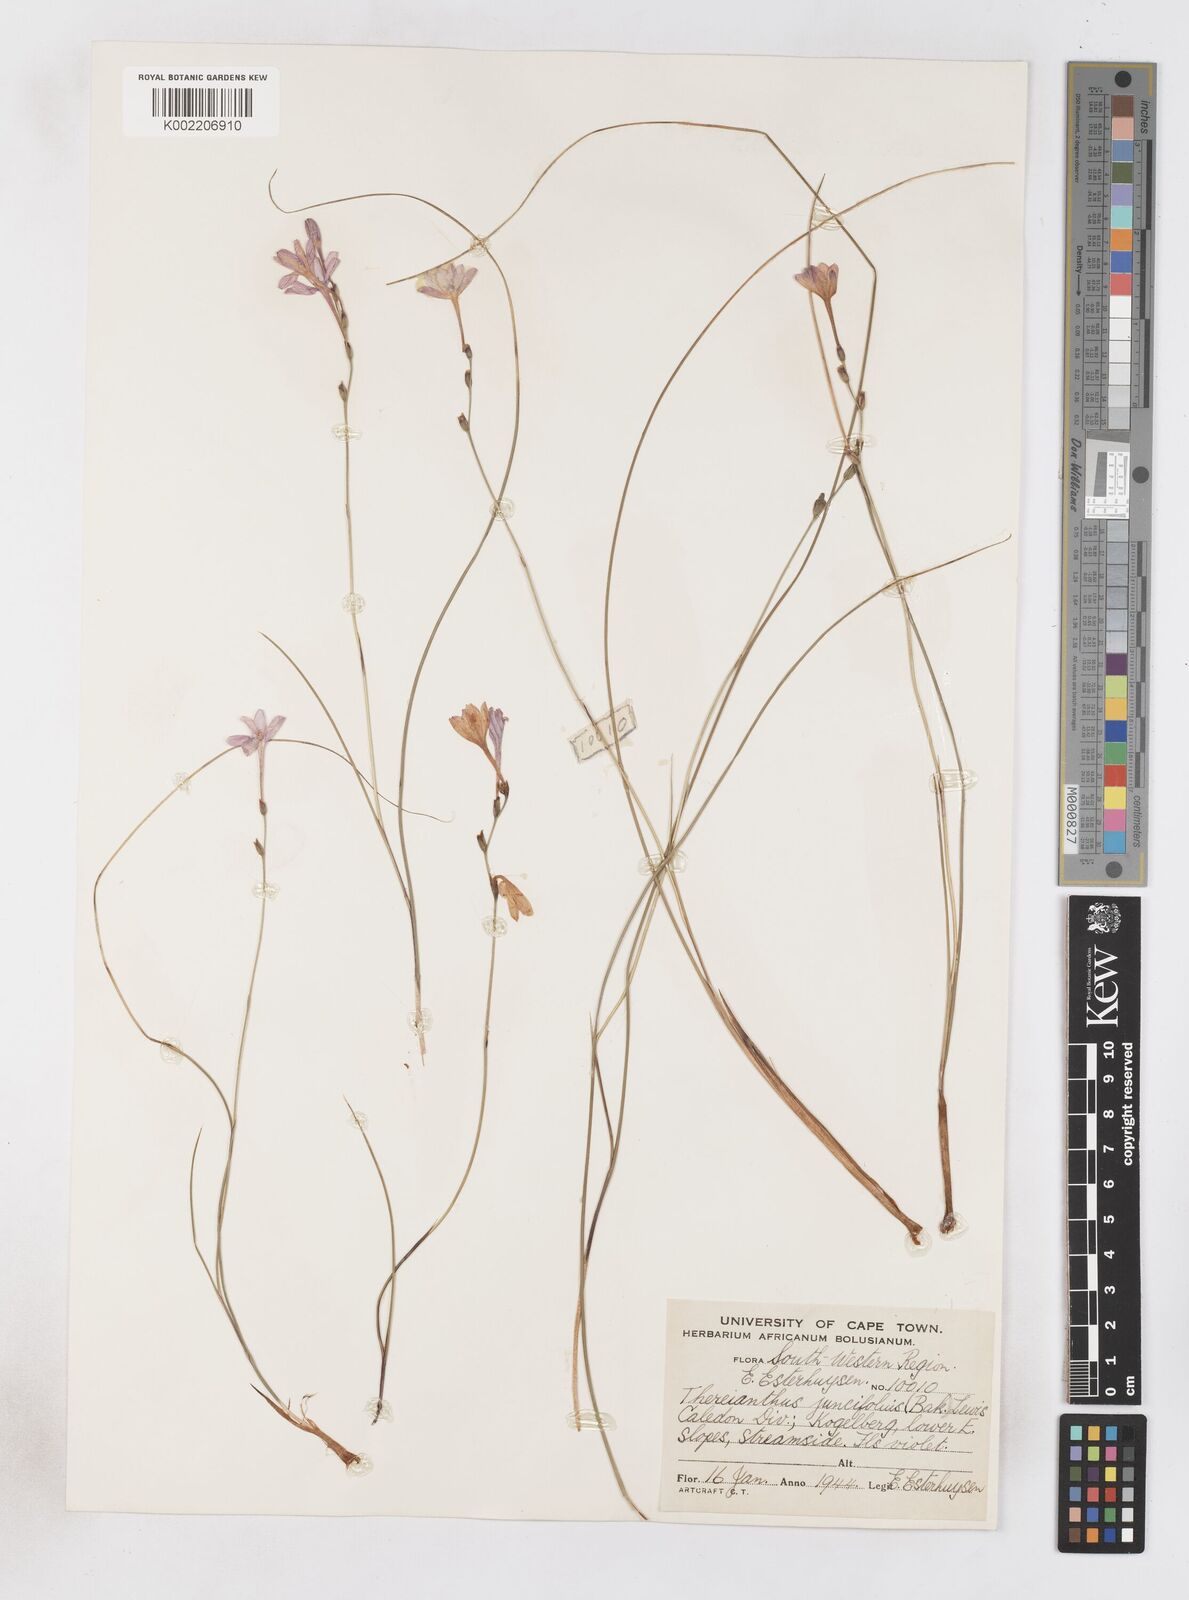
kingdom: Plantae
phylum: Tracheophyta
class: Liliopsida
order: Asparagales
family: Iridaceae
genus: Micranthus
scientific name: Micranthus plantagineus
